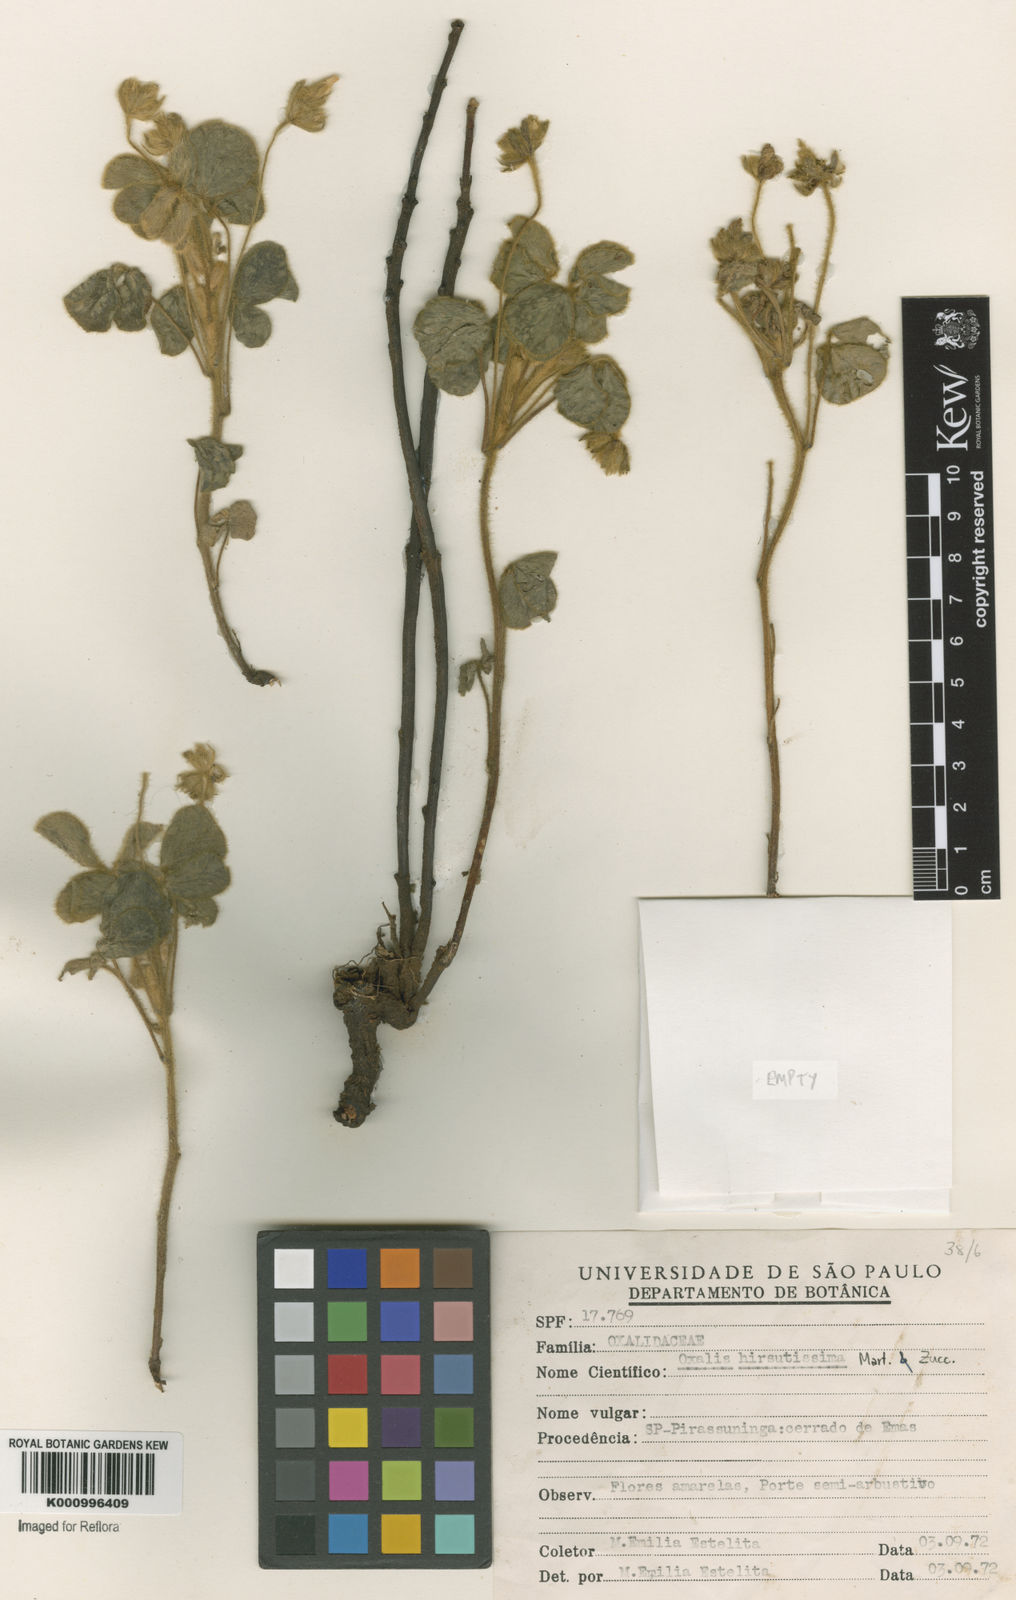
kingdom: Plantae
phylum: Tracheophyta
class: Magnoliopsida
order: Oxalidales
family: Oxalidaceae
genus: Oxalis
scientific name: Oxalis hirsutissima
